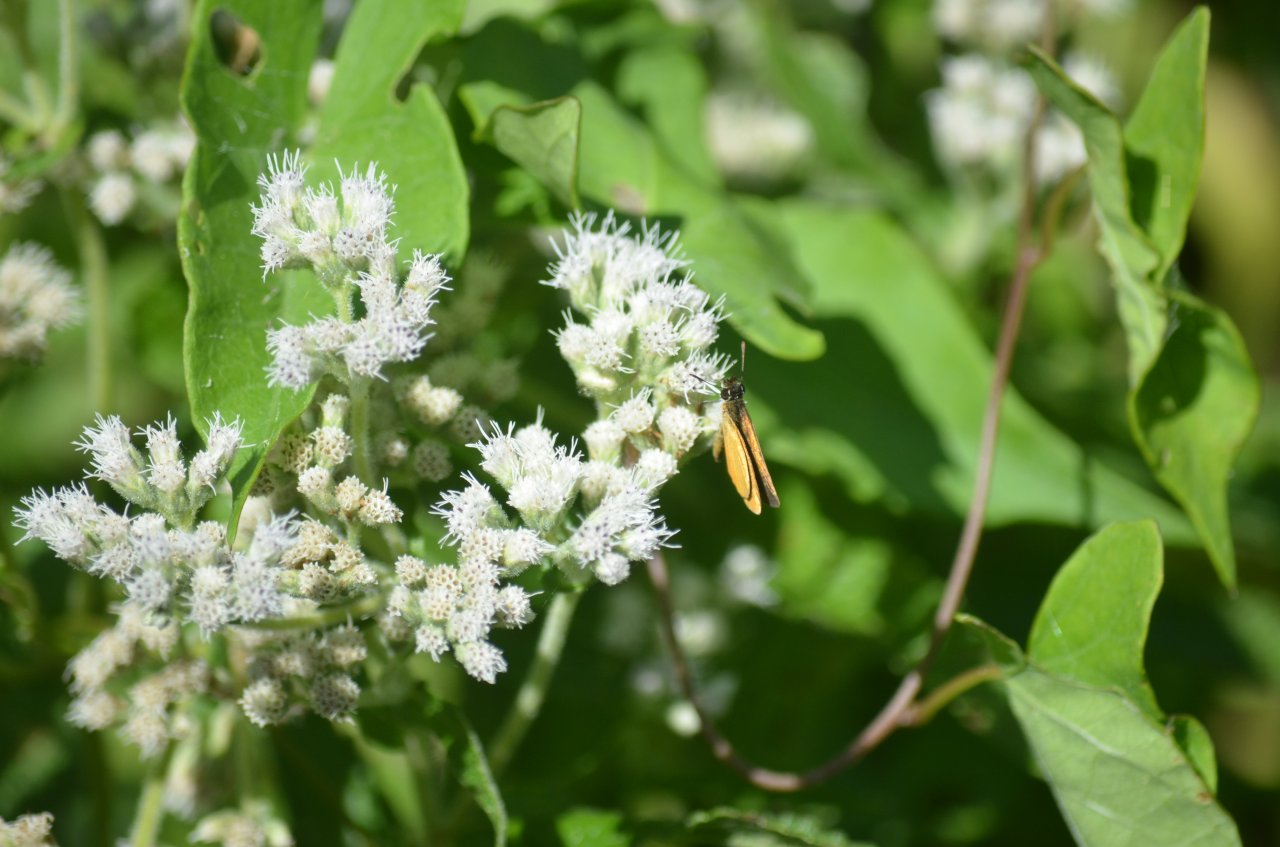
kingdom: Animalia
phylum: Arthropoda
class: Insecta
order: Lepidoptera
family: Hesperiidae
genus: Ancyloxypha
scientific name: Ancyloxypha numitor
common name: Least Skipper
